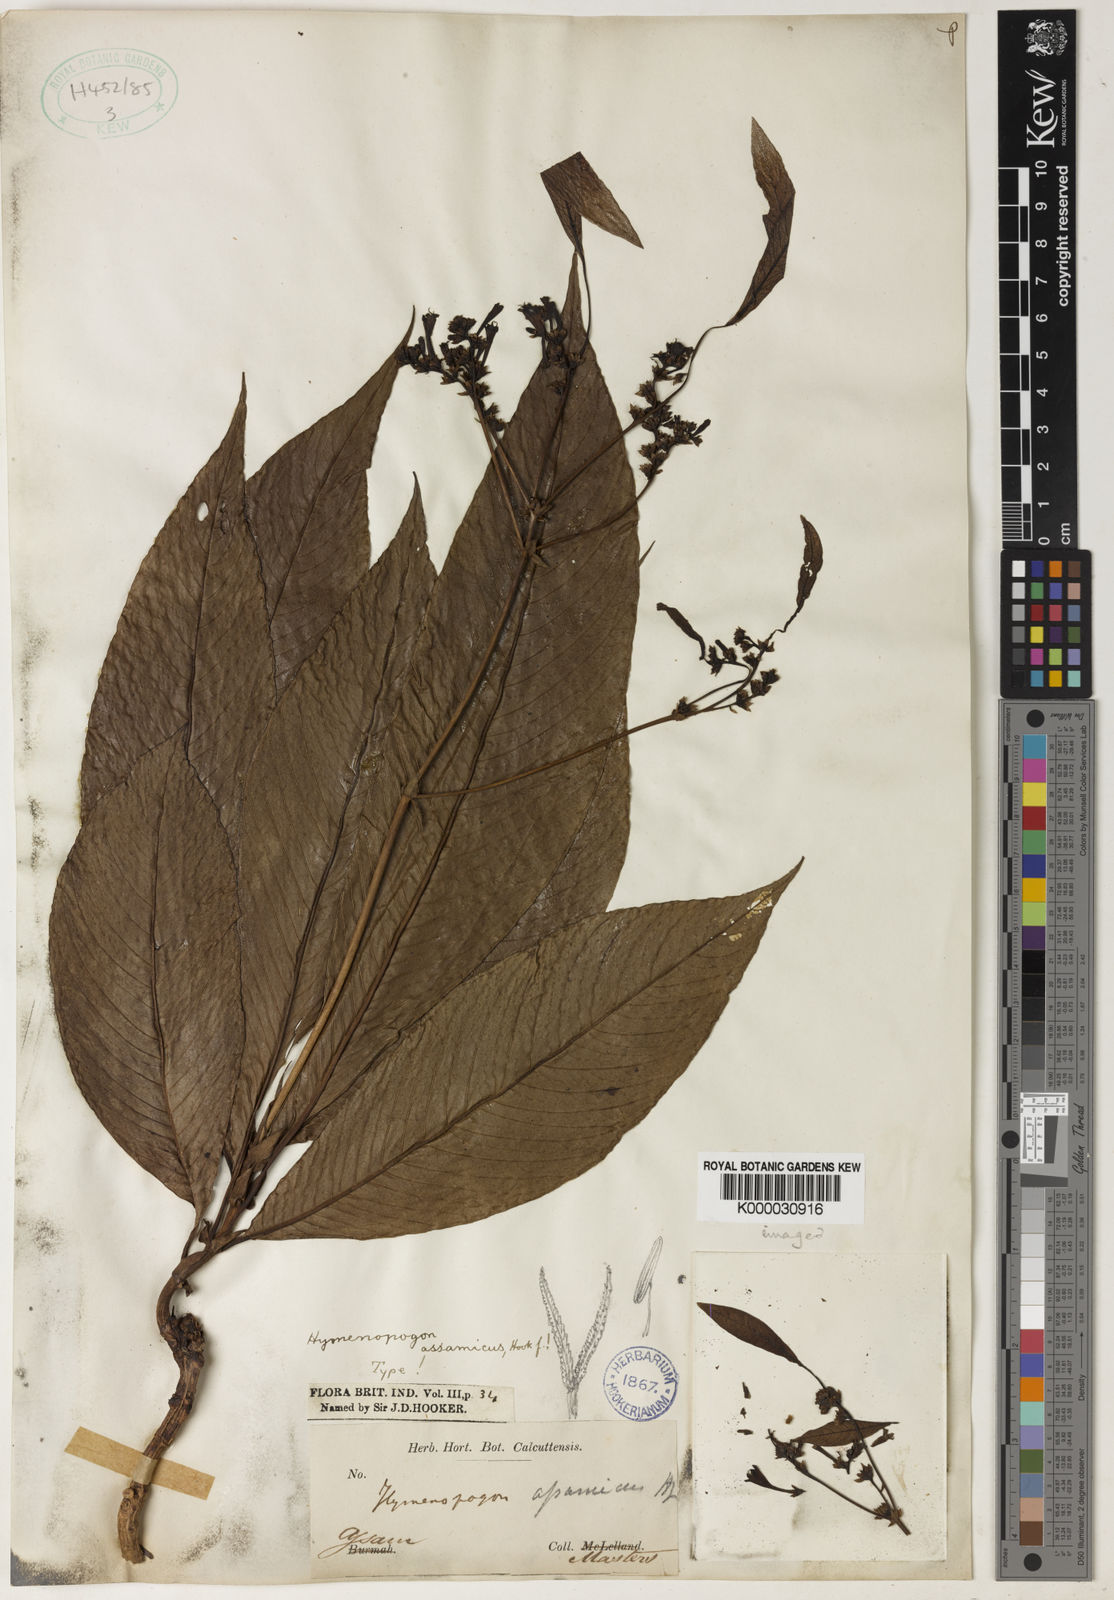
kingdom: Plantae
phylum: Tracheophyta
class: Magnoliopsida
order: Gentianales
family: Rubiaceae
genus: Neohymenopogon
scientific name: Neohymenopogon assamicus
